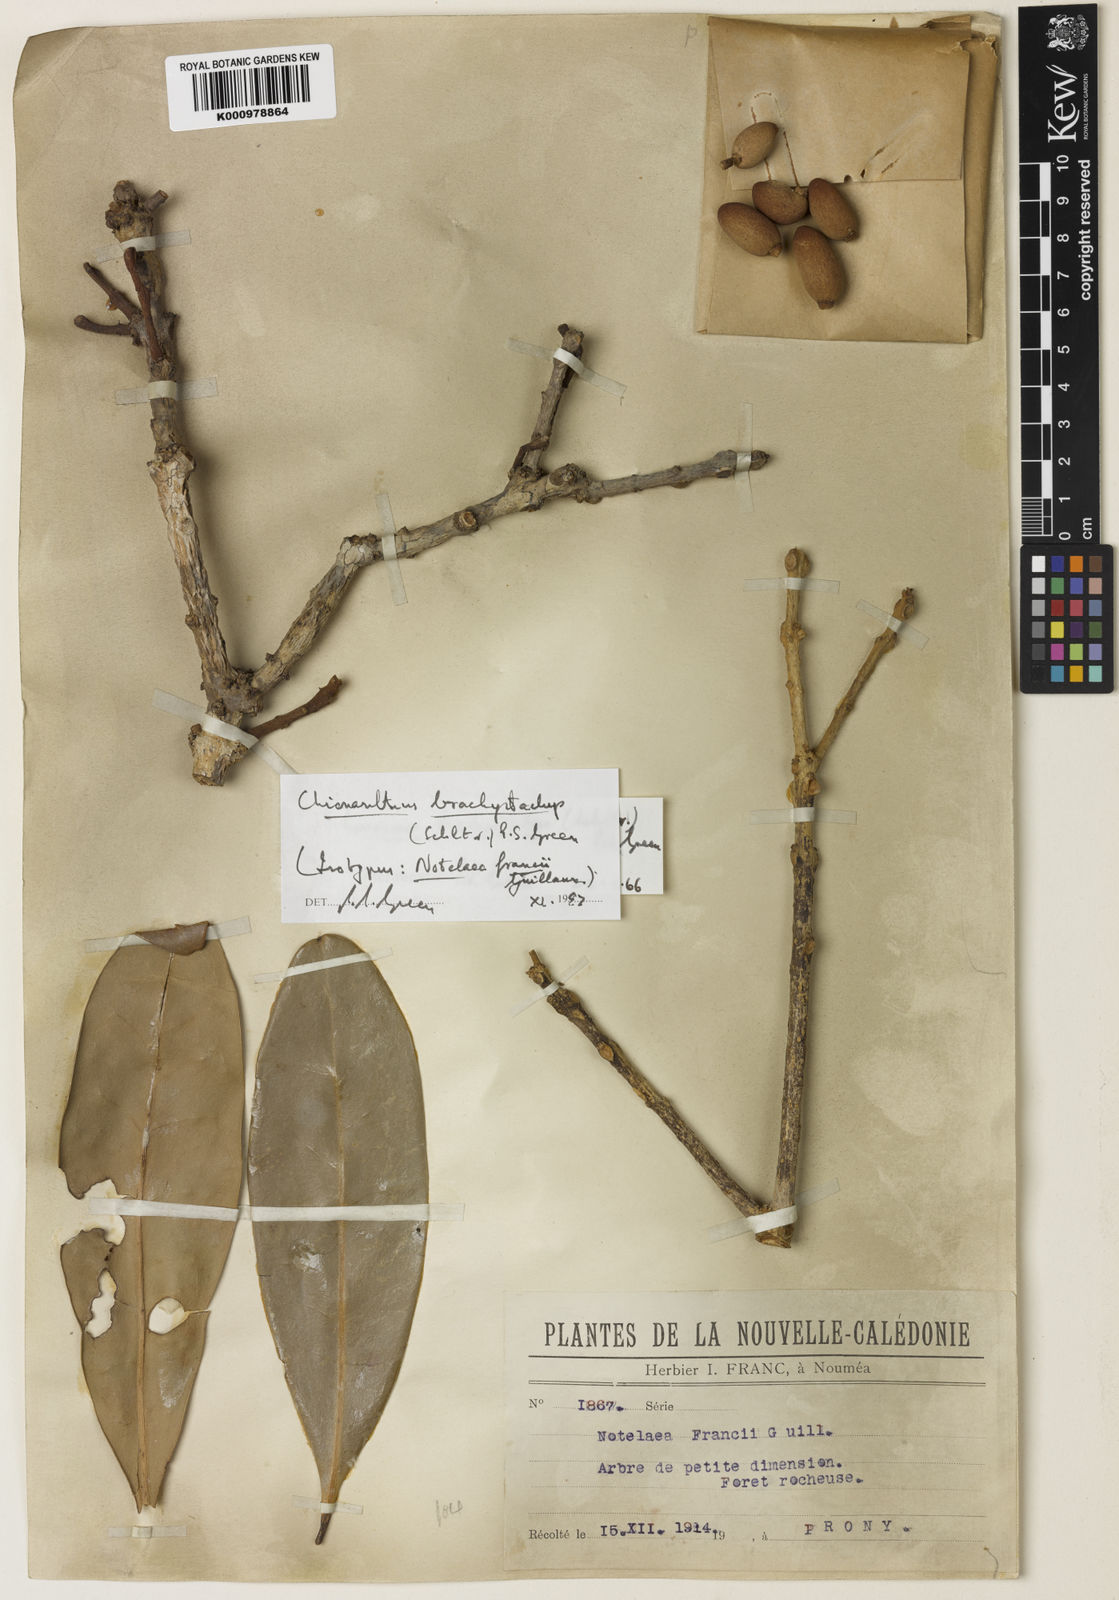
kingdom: Plantae
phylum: Tracheophyta
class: Magnoliopsida
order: Lamiales
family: Oleaceae
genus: Chionanthus
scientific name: Chionanthus brachystachys
